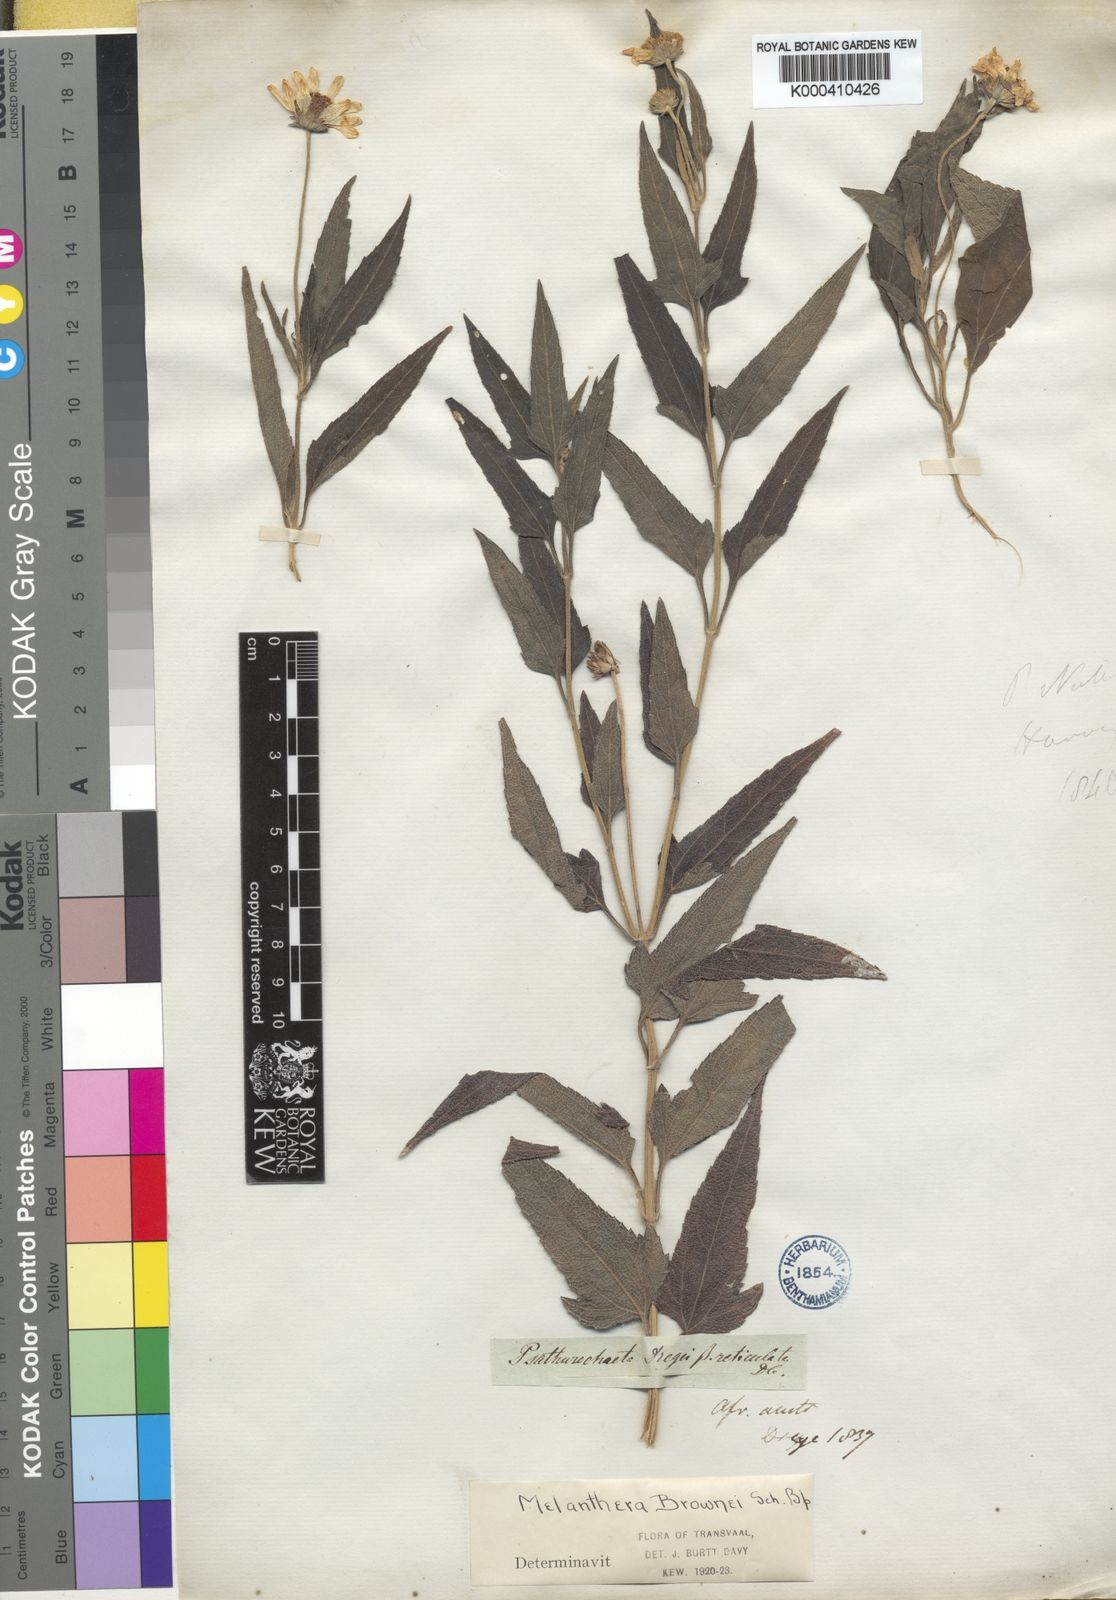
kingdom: Plantae
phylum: Tracheophyta
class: Magnoliopsida
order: Asterales
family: Asteraceae
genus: Melanthera
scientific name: Melanthera
